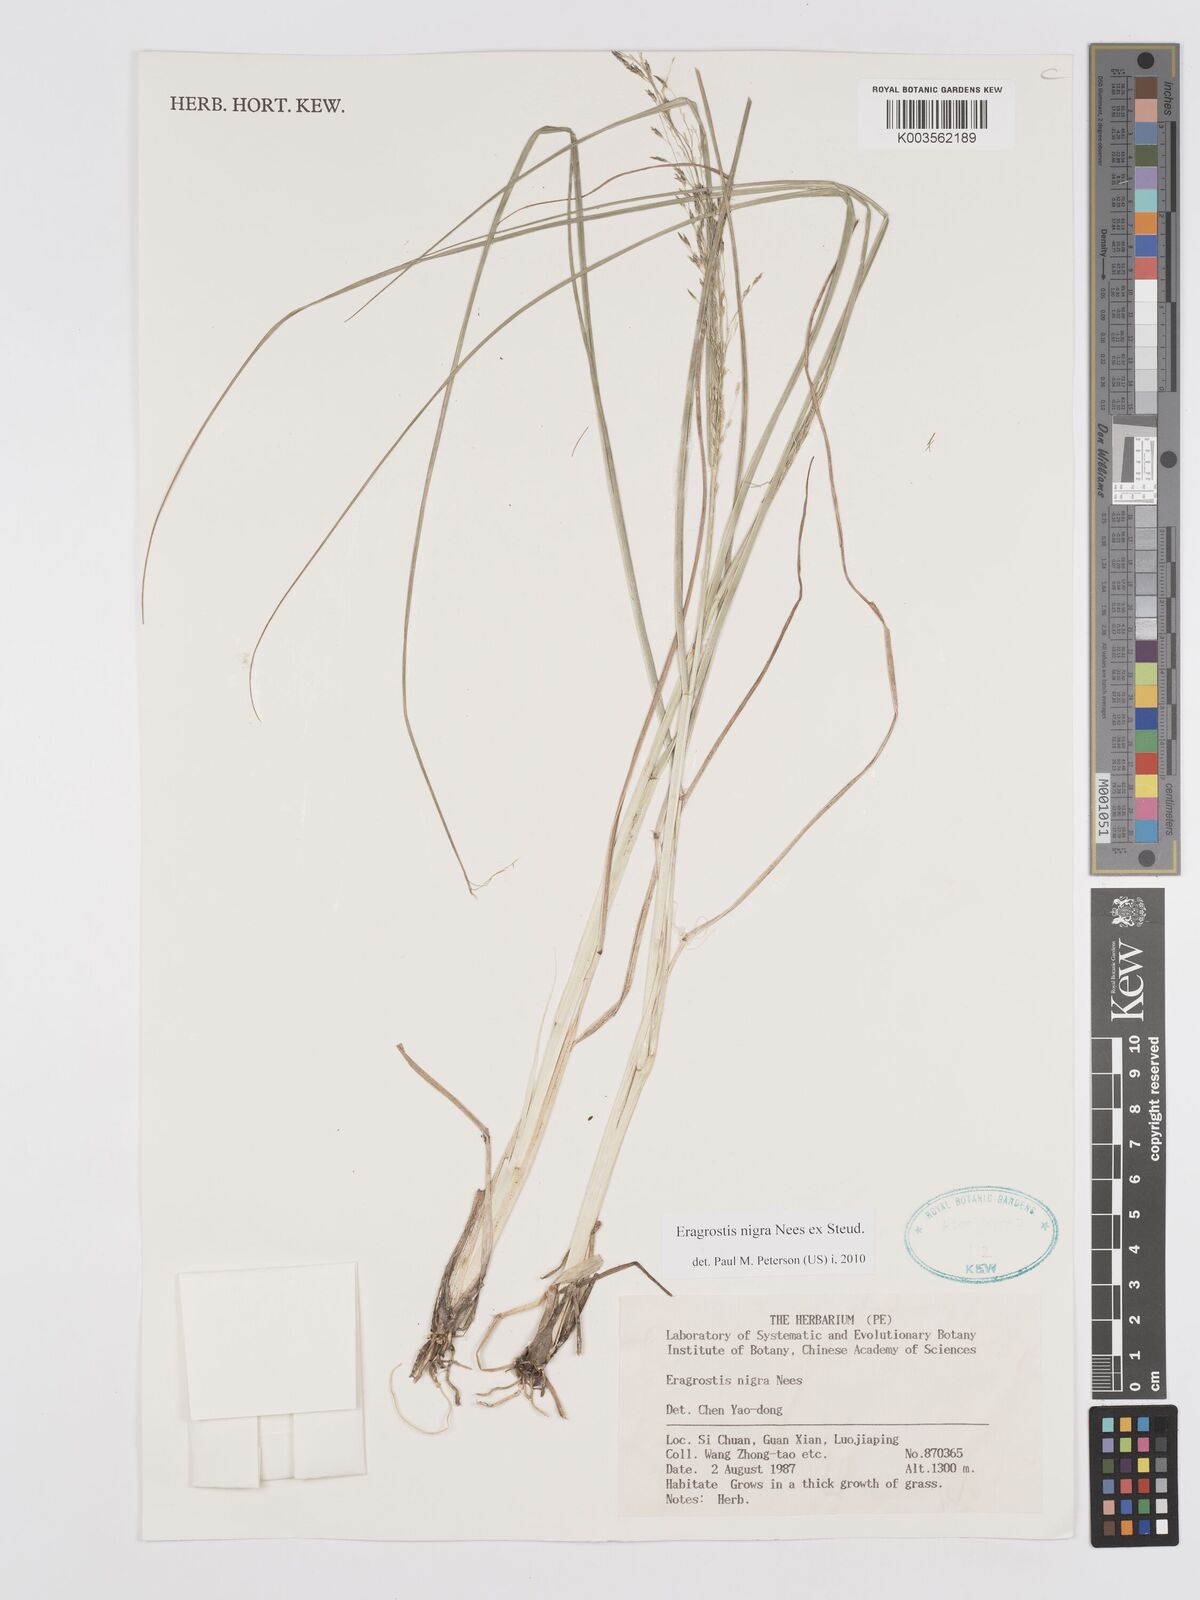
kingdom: Plantae
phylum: Tracheophyta
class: Liliopsida
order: Poales
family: Poaceae
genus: Eragrostis
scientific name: Eragrostis nigra
